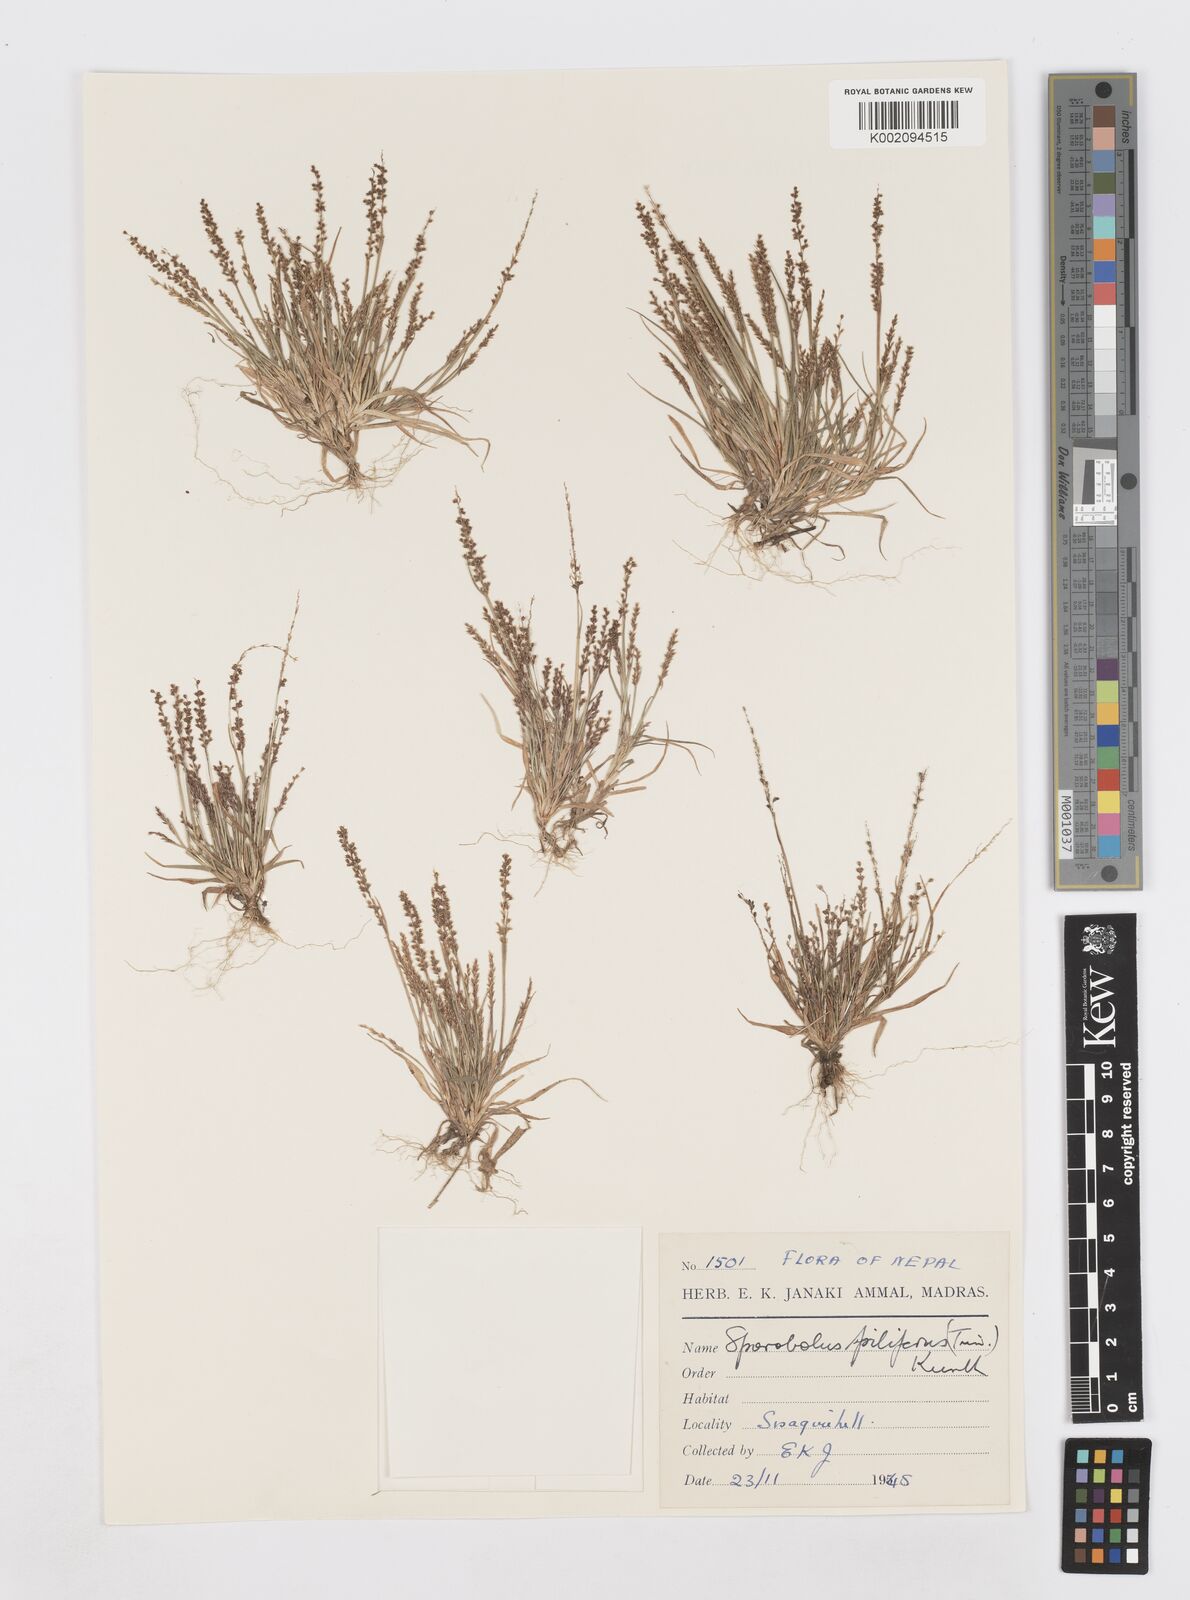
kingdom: Plantae
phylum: Tracheophyta
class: Liliopsida
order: Poales
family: Poaceae
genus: Sporobolus
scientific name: Sporobolus pilifer
